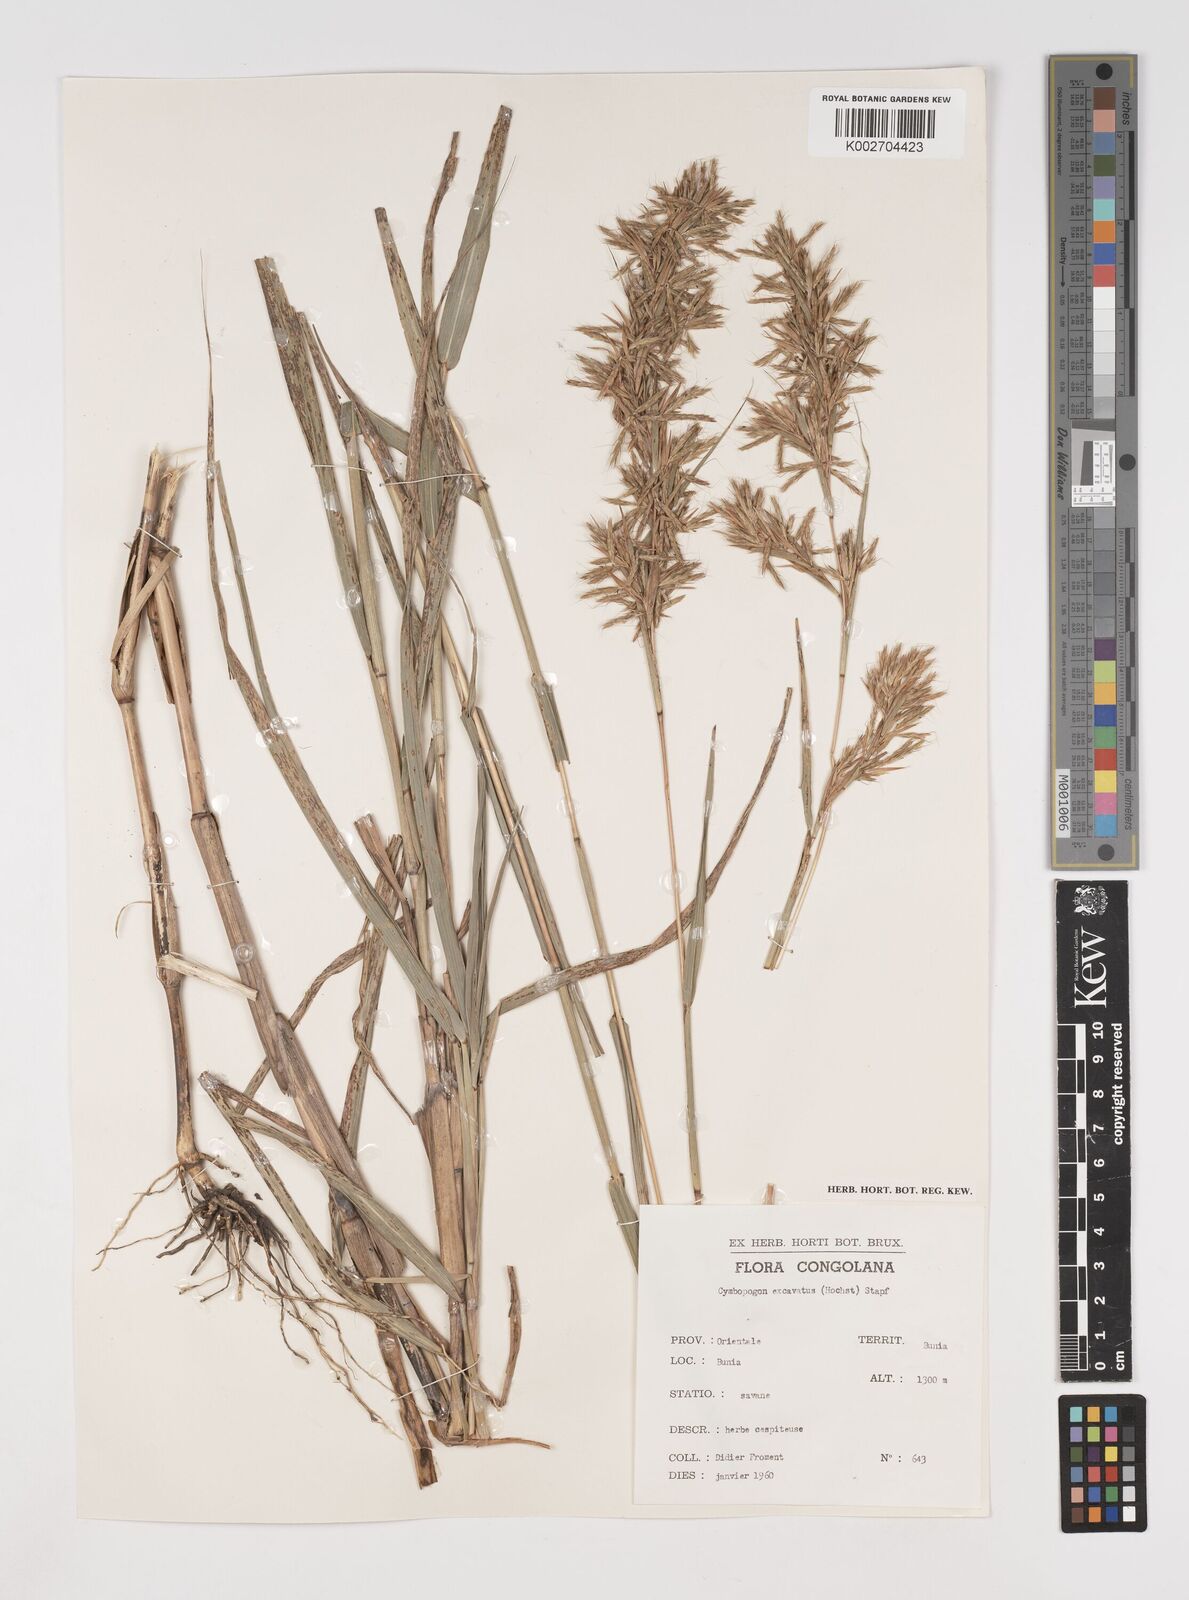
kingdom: Plantae
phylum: Tracheophyta
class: Liliopsida
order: Poales
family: Poaceae
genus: Cymbopogon
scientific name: Cymbopogon giganteus
